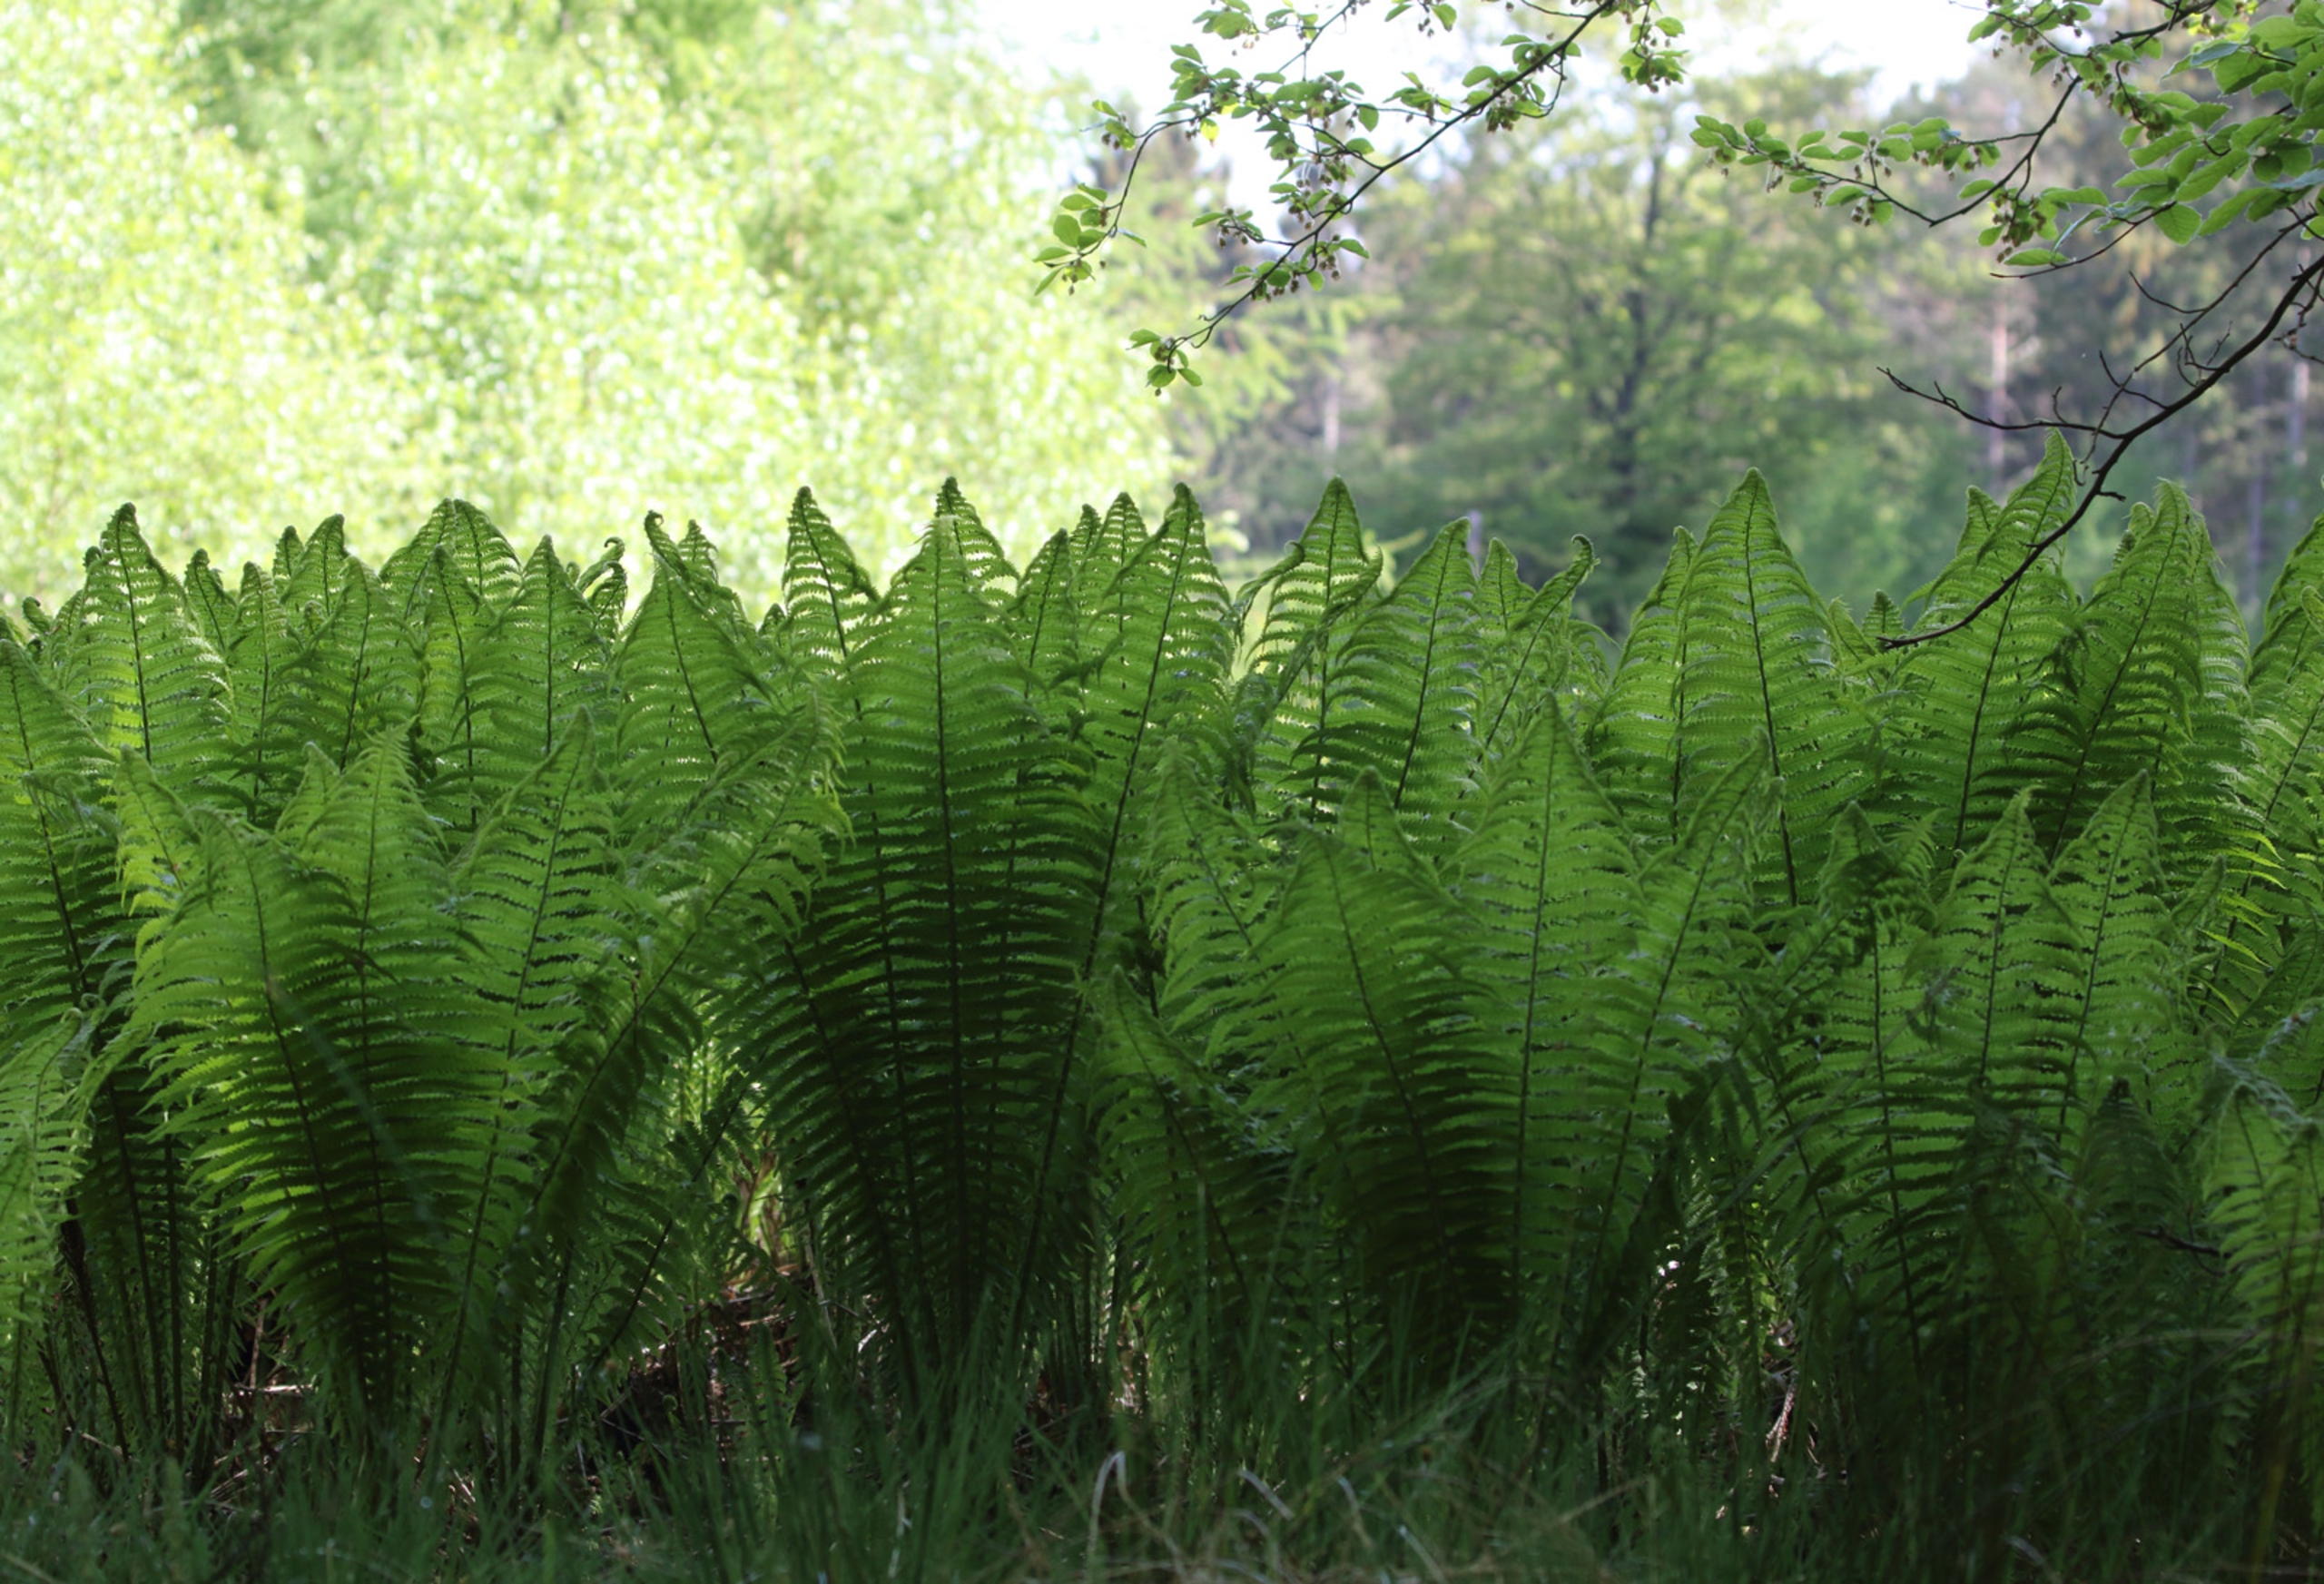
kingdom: Plantae
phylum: Tracheophyta
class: Polypodiopsida
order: Polypodiales
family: Onocleaceae
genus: Matteuccia
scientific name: Matteuccia struthiopteris
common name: Strudsvinge
